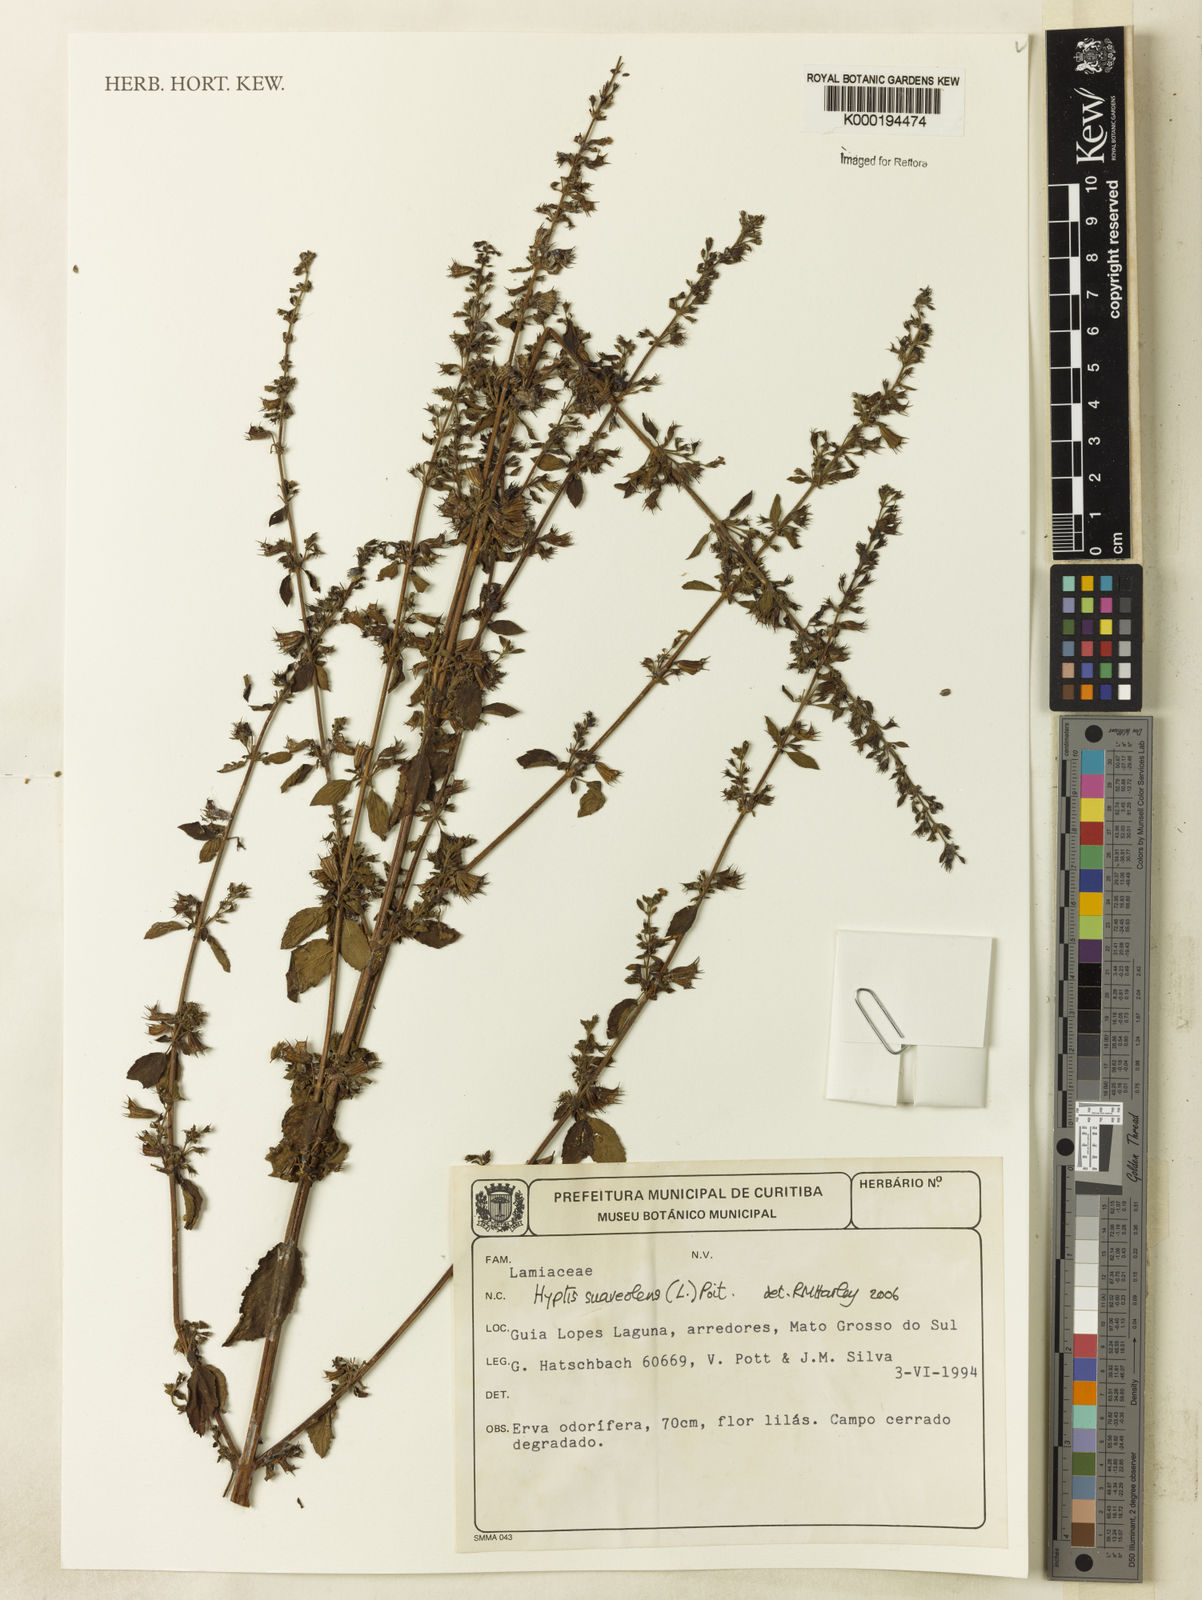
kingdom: Plantae
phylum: Tracheophyta
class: Magnoliopsida
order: Lamiales
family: Lamiaceae
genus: Mesosphaerum
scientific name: Mesosphaerum suaveolens
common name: Pignut
